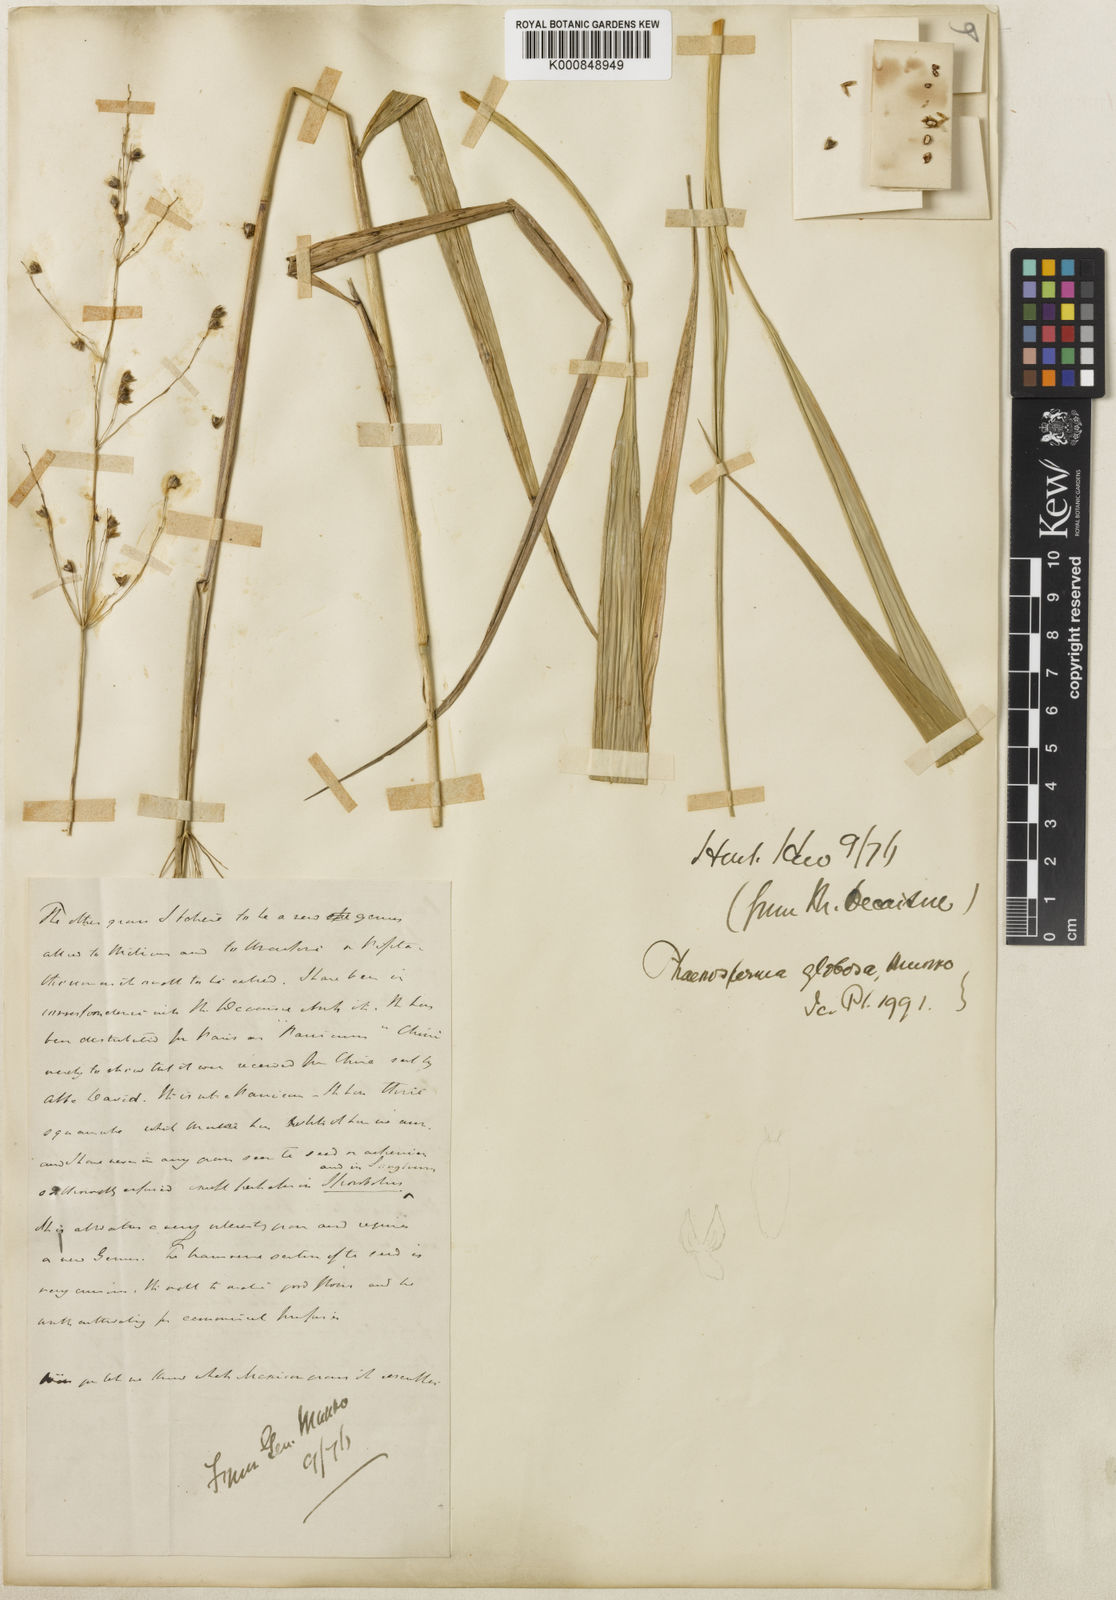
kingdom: Plantae
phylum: Tracheophyta
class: Liliopsida
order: Poales
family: Poaceae
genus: Phaenosperma
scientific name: Phaenosperma
